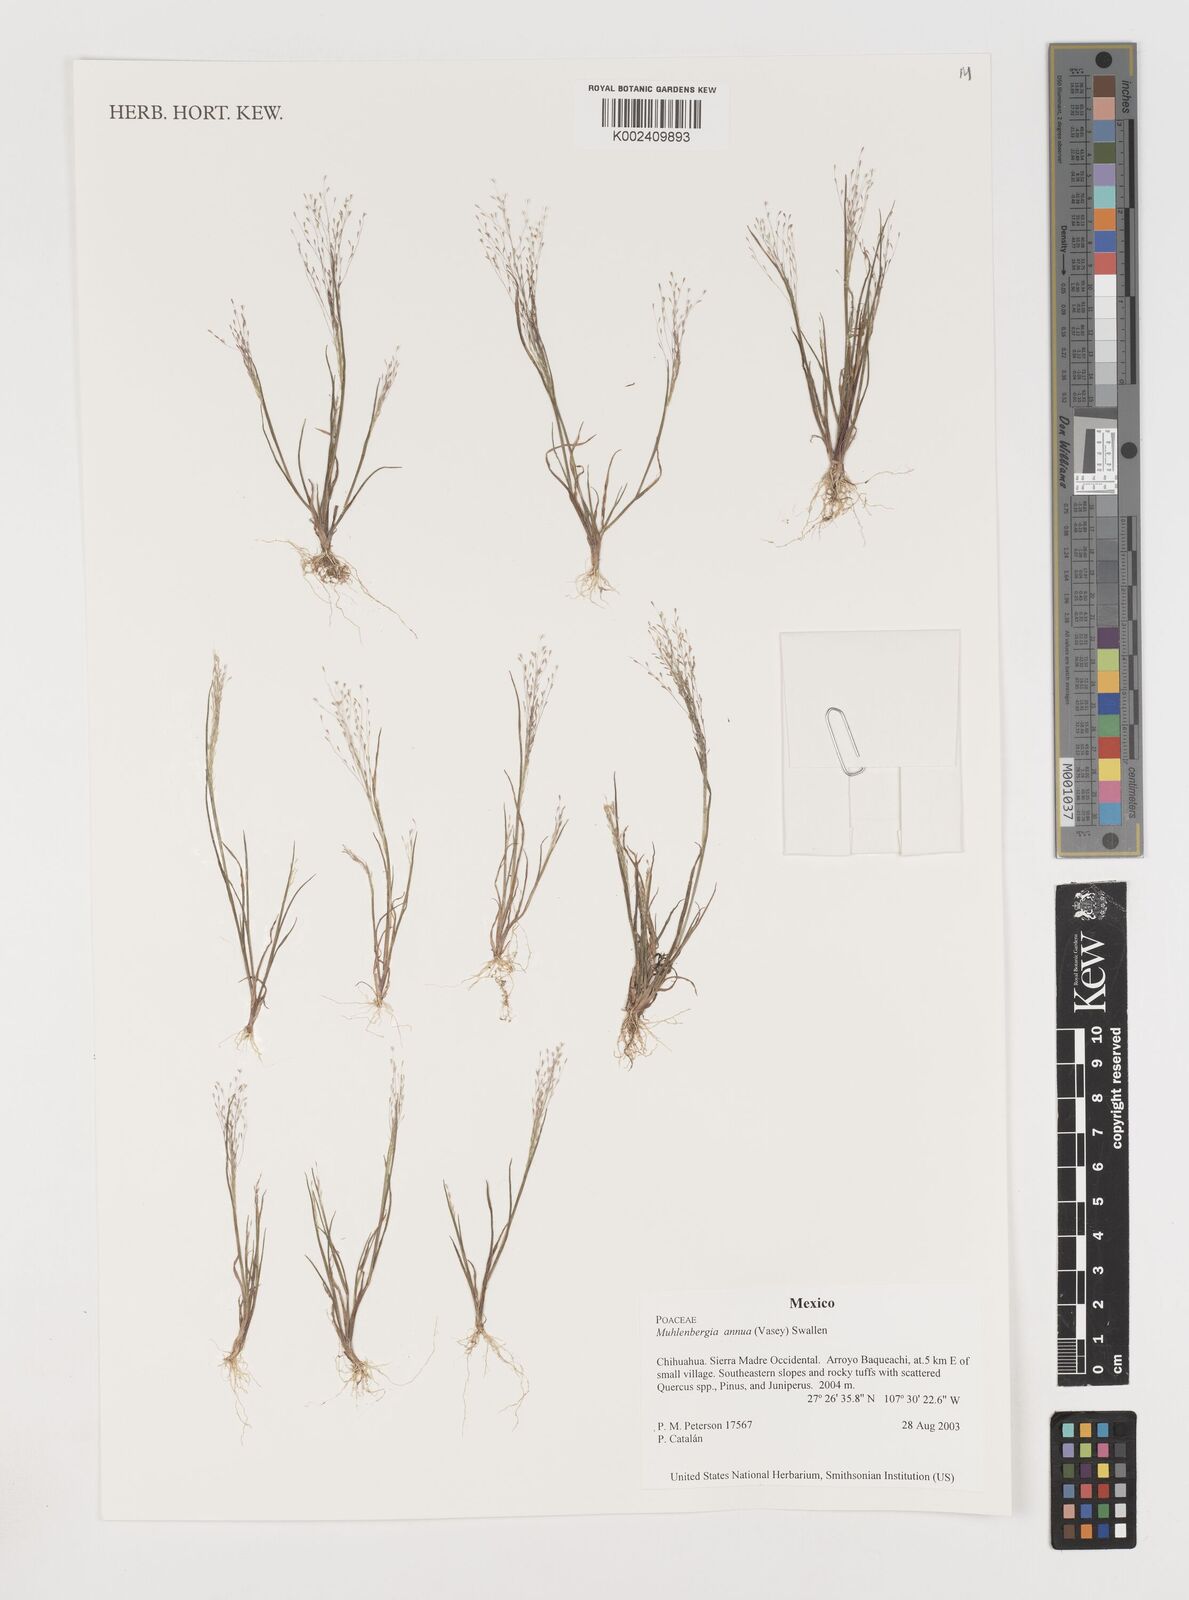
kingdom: Plantae
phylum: Tracheophyta
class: Liliopsida
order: Poales
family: Poaceae
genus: Muhlenbergia
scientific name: Muhlenbergia annua
